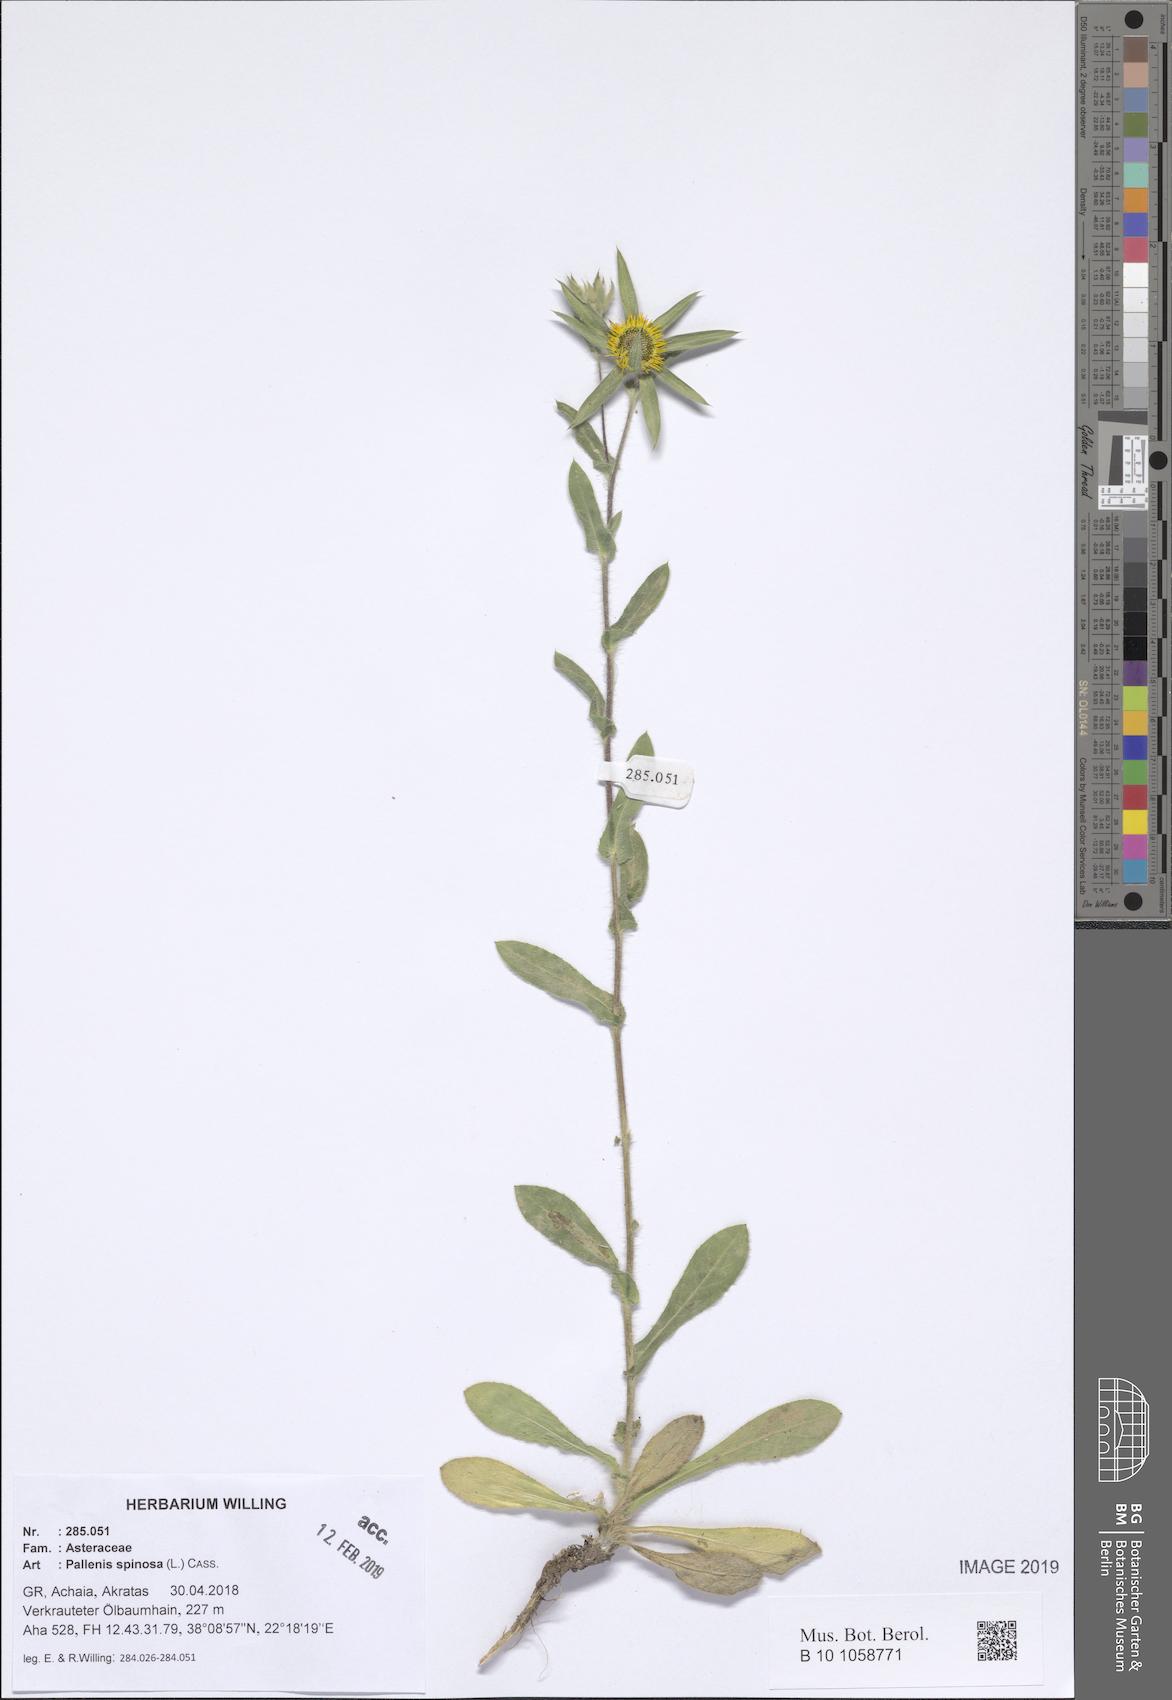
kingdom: Plantae
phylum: Tracheophyta
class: Magnoliopsida
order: Asterales
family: Asteraceae
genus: Pallenis
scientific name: Pallenis spinosa
